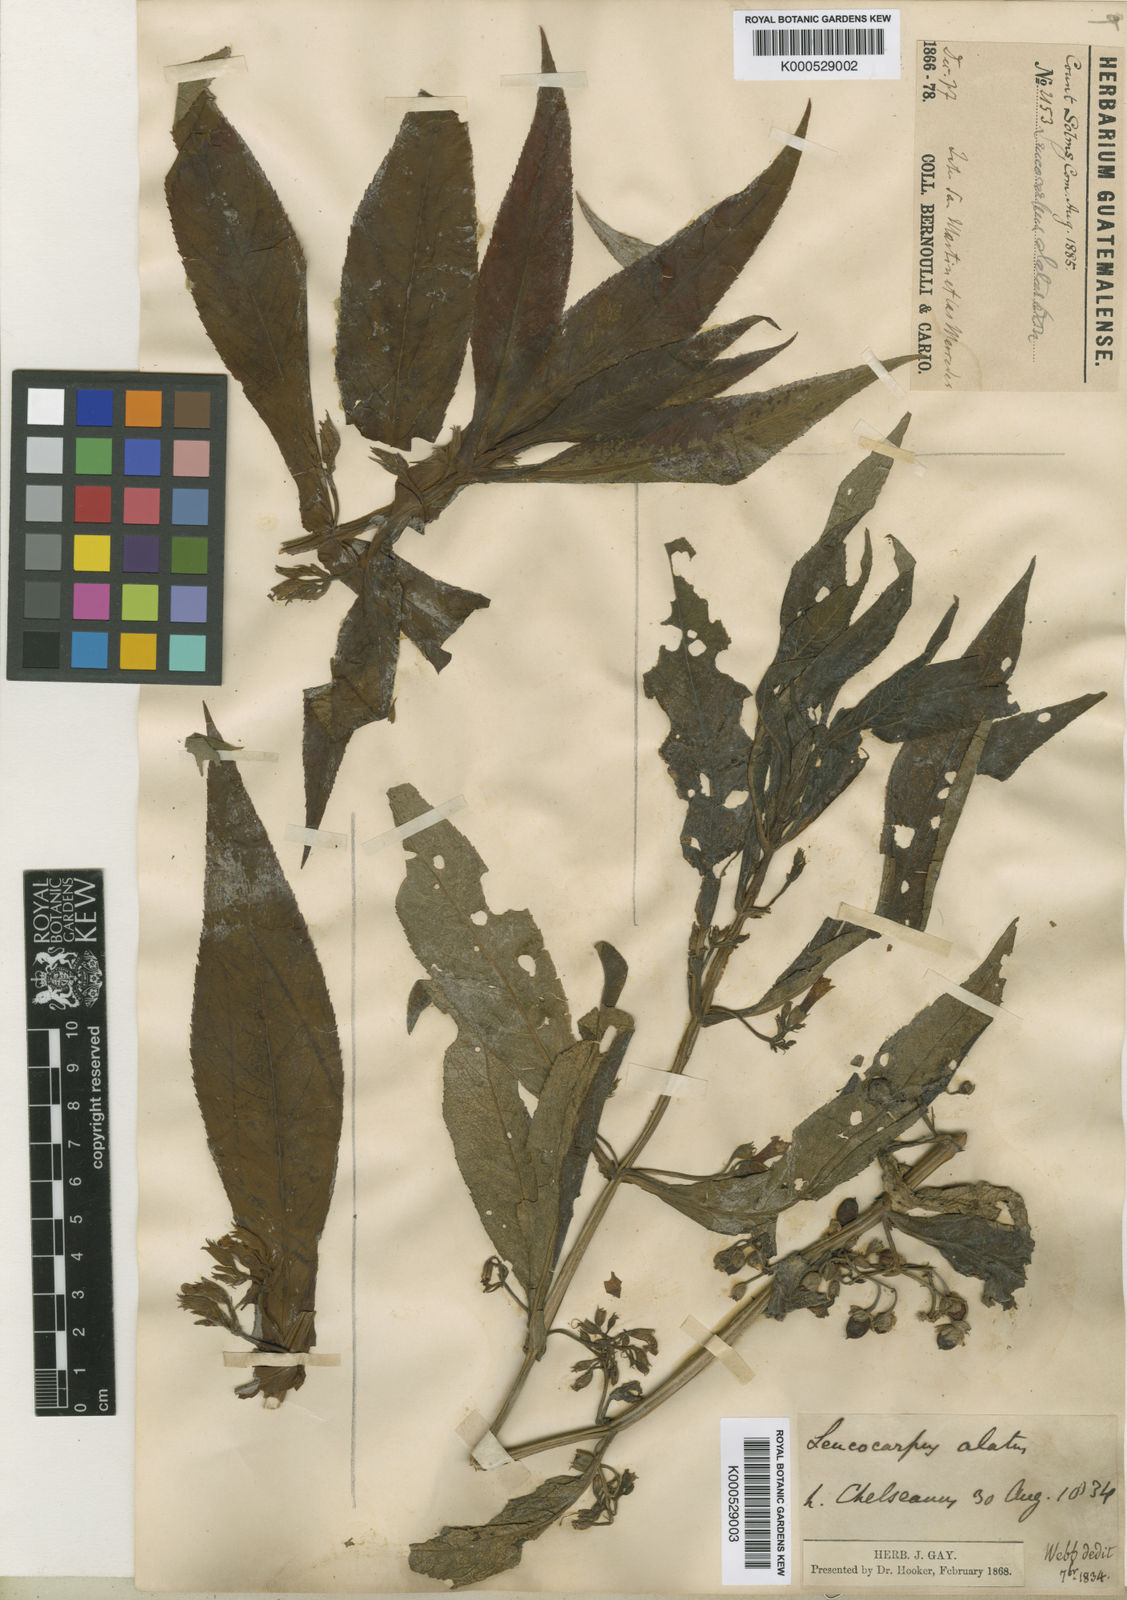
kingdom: Plantae
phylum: Tracheophyta
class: Magnoliopsida
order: Lamiales
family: Phrymaceae
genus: Leucocarpus
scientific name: Leucocarpus perfoliatus
